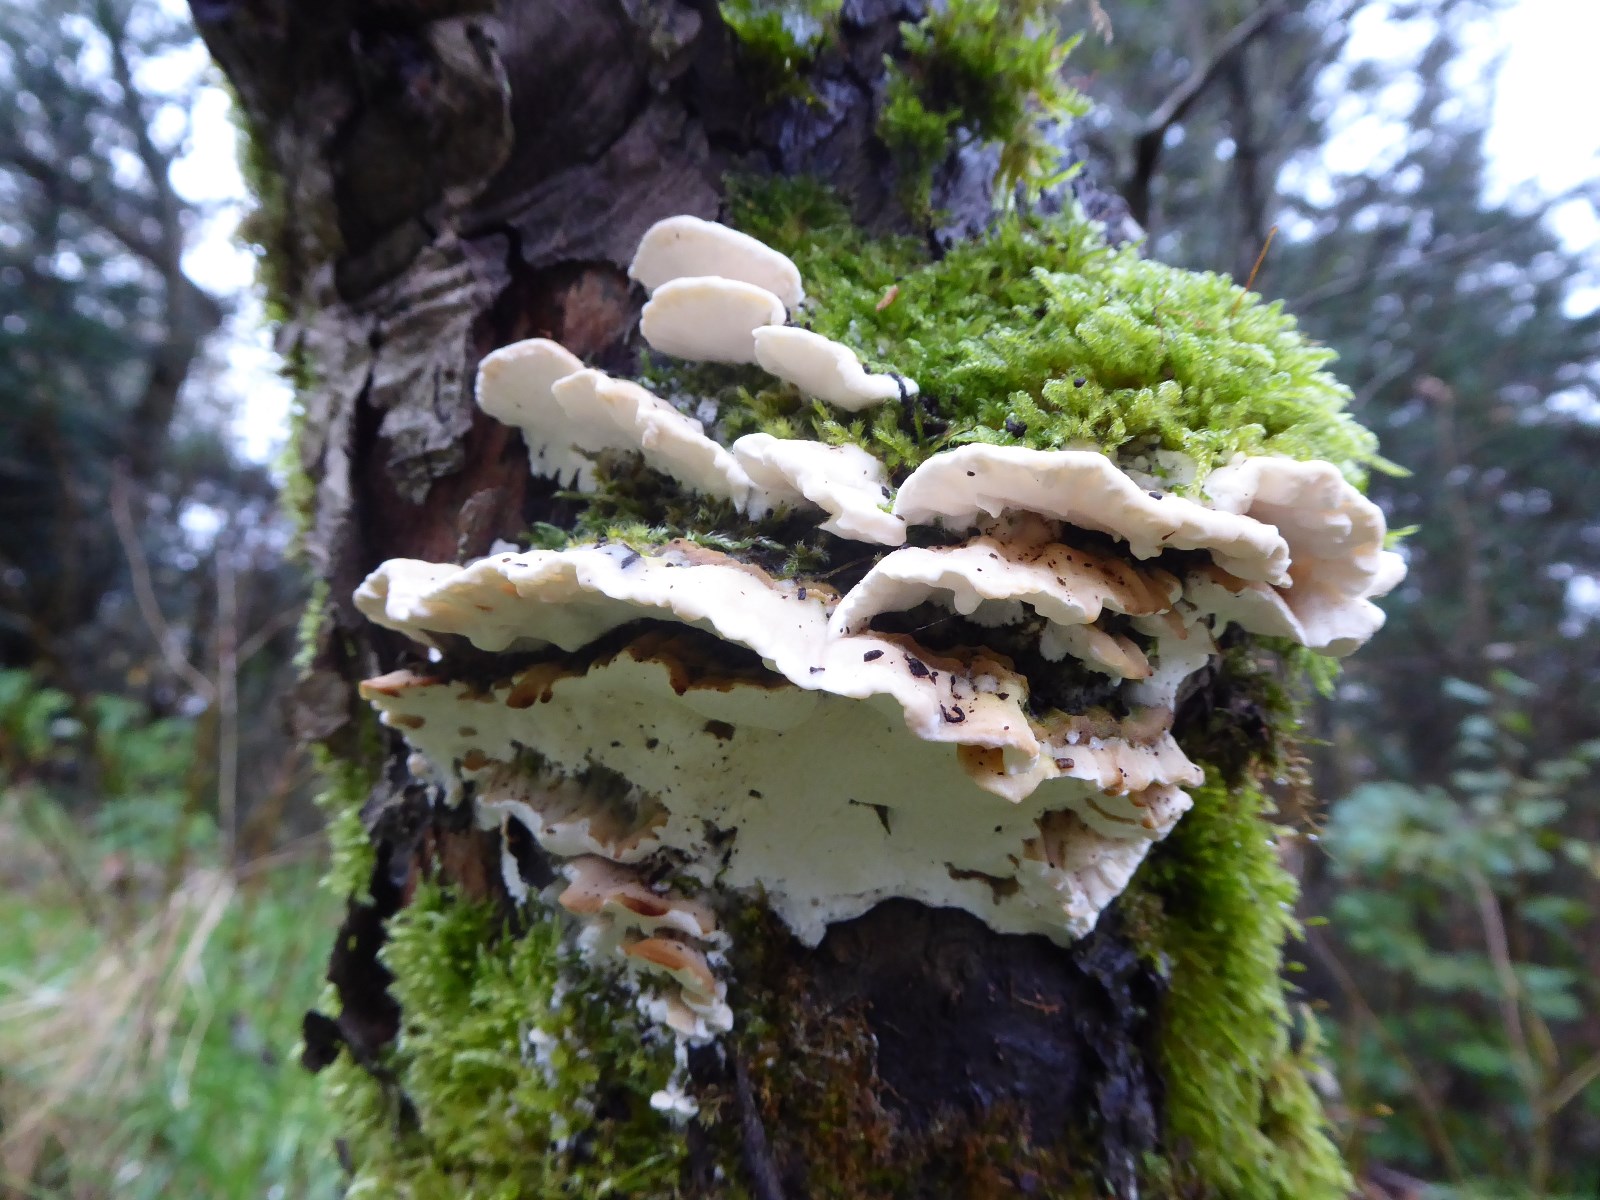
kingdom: Fungi
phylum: Basidiomycota
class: Agaricomycetes
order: Hymenochaetales
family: Oxyporaceae
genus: Oxyporus
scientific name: Oxyporus populinus
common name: sammenvokset trylleporesvamp
